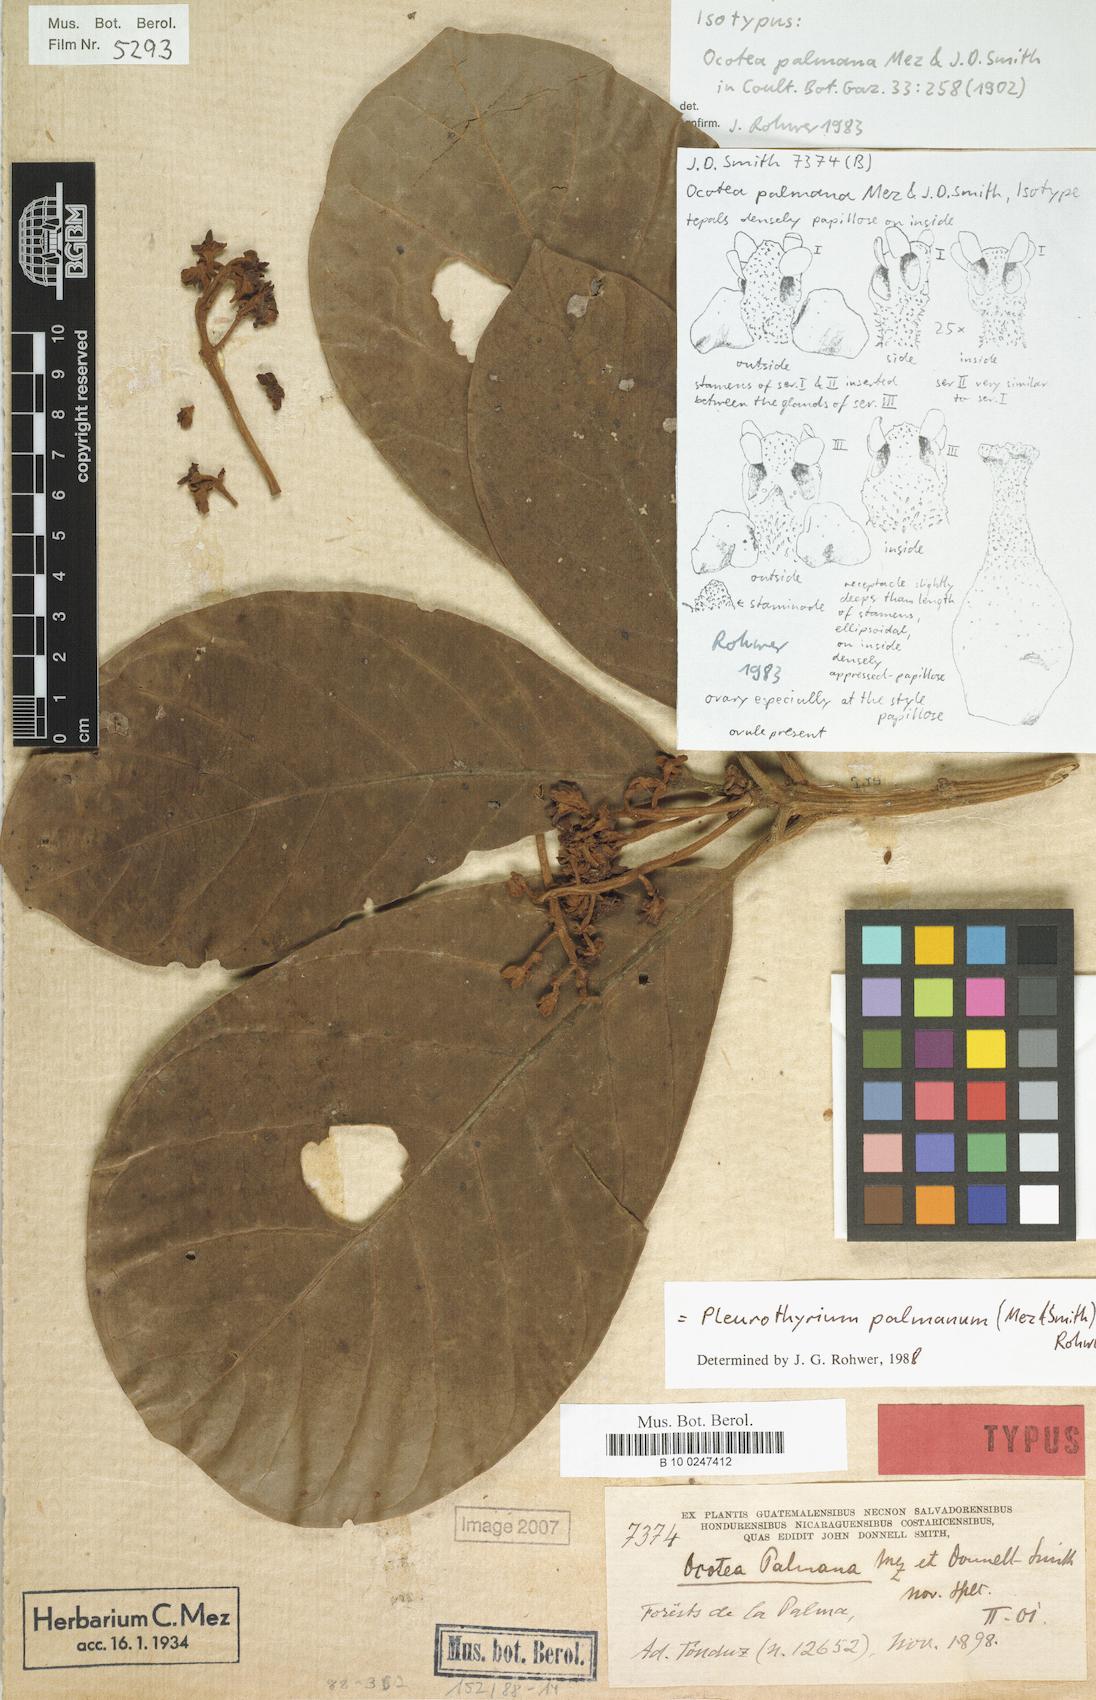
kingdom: Plantae
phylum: Tracheophyta
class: Magnoliopsida
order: Laurales
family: Lauraceae
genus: Pleurothyrium
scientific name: Pleurothyrium palmanum
